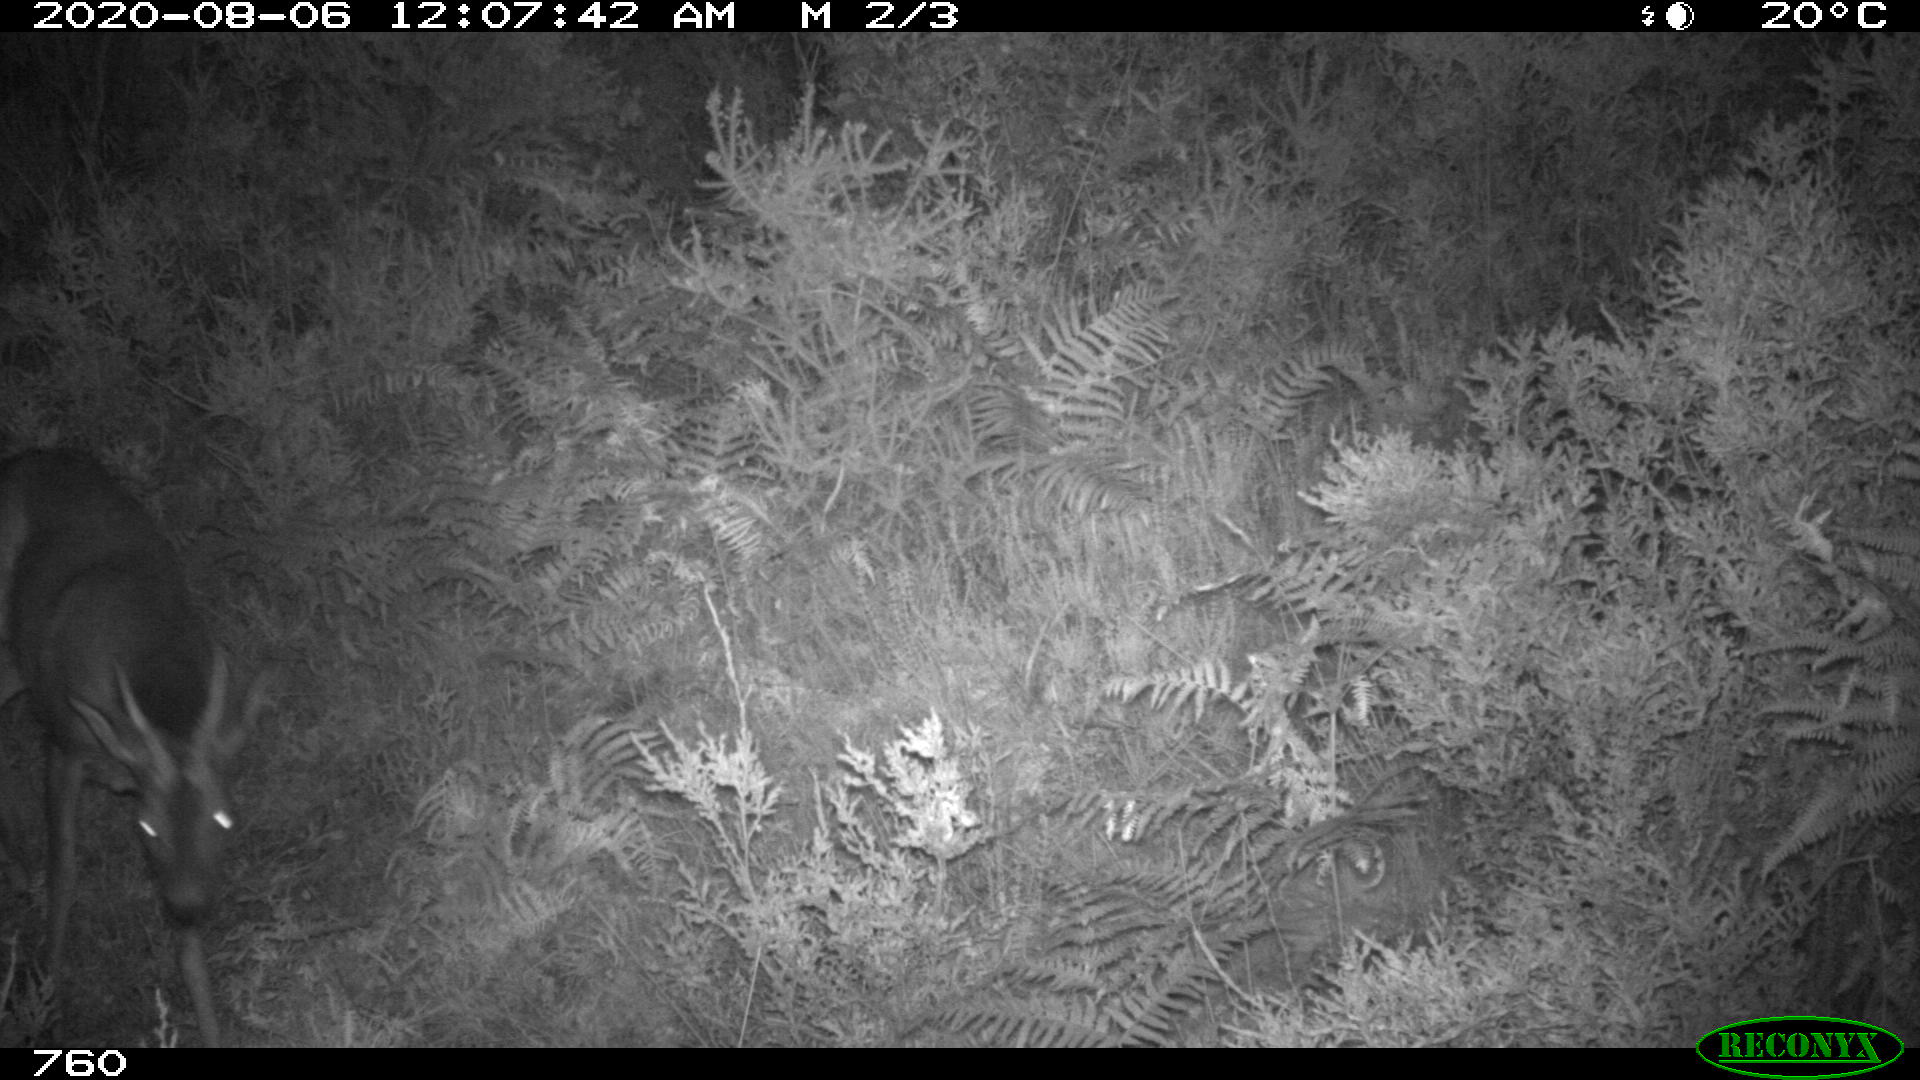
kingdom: Animalia
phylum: Chordata
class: Mammalia
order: Artiodactyla
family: Cervidae
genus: Capreolus
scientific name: Capreolus capreolus
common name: Western roe deer
